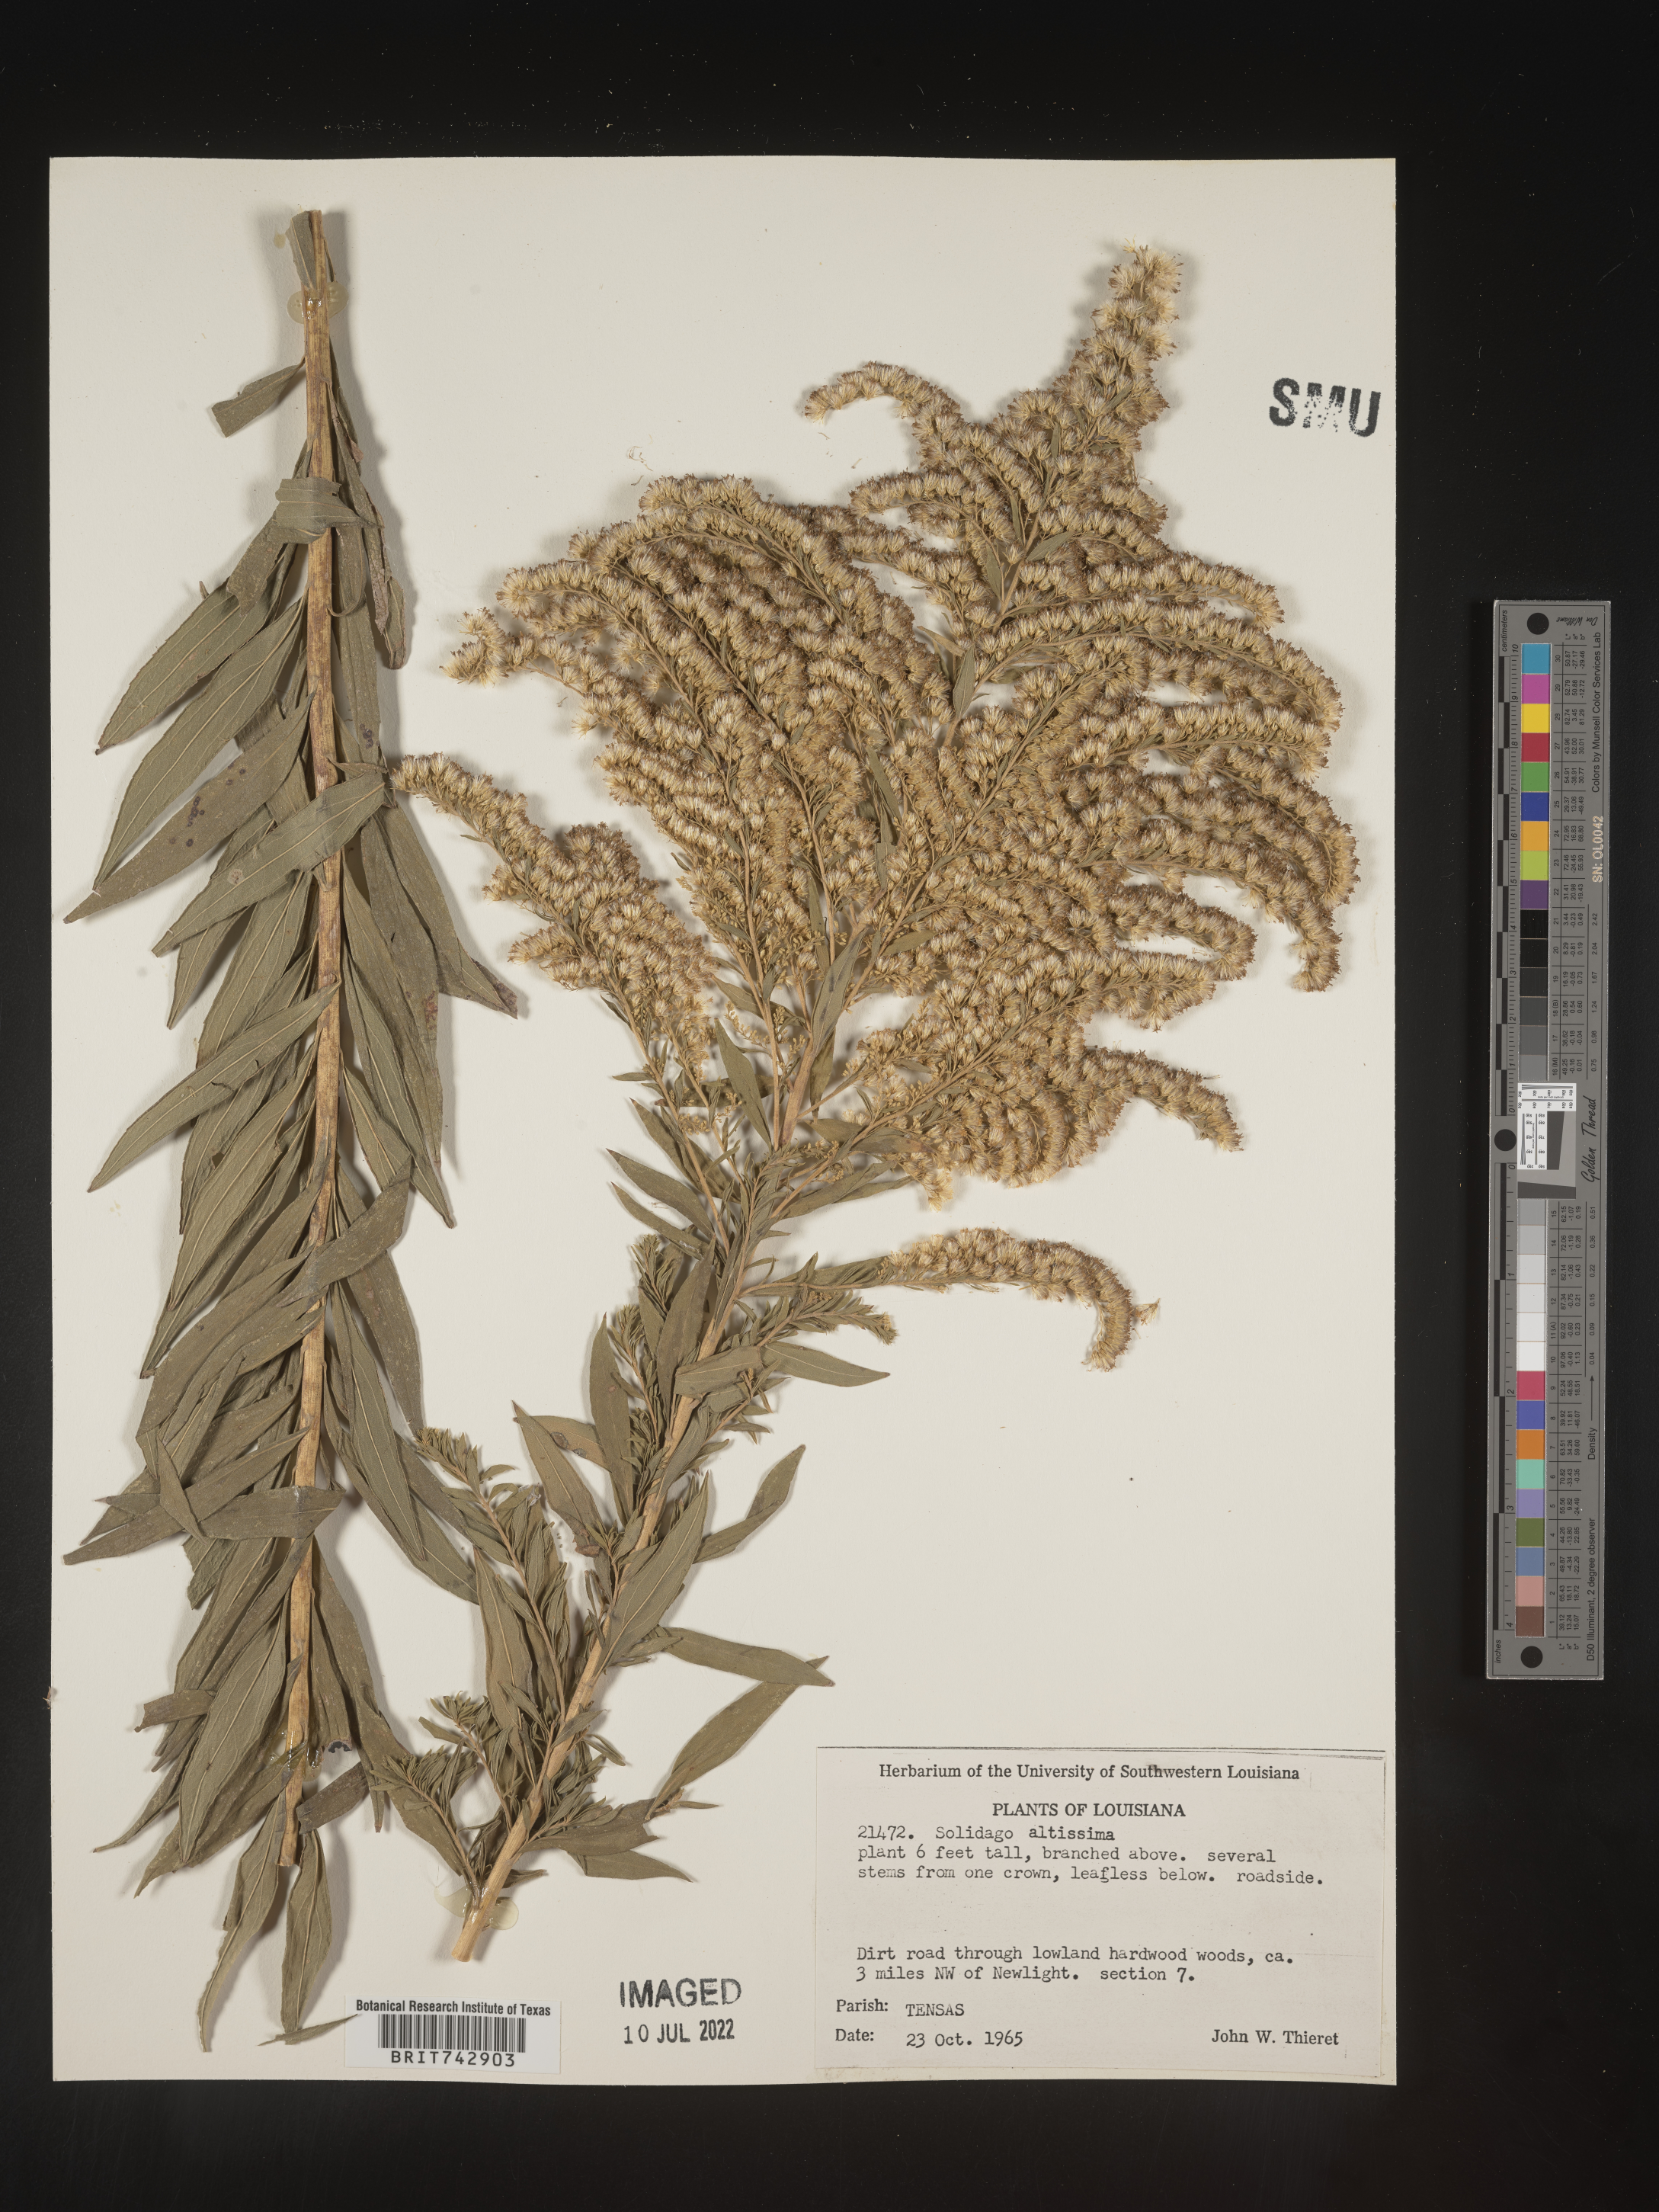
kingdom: Plantae
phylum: Tracheophyta
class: Magnoliopsida
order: Asterales
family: Asteraceae
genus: Solidago
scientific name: Solidago altissima
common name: Late goldenrod
